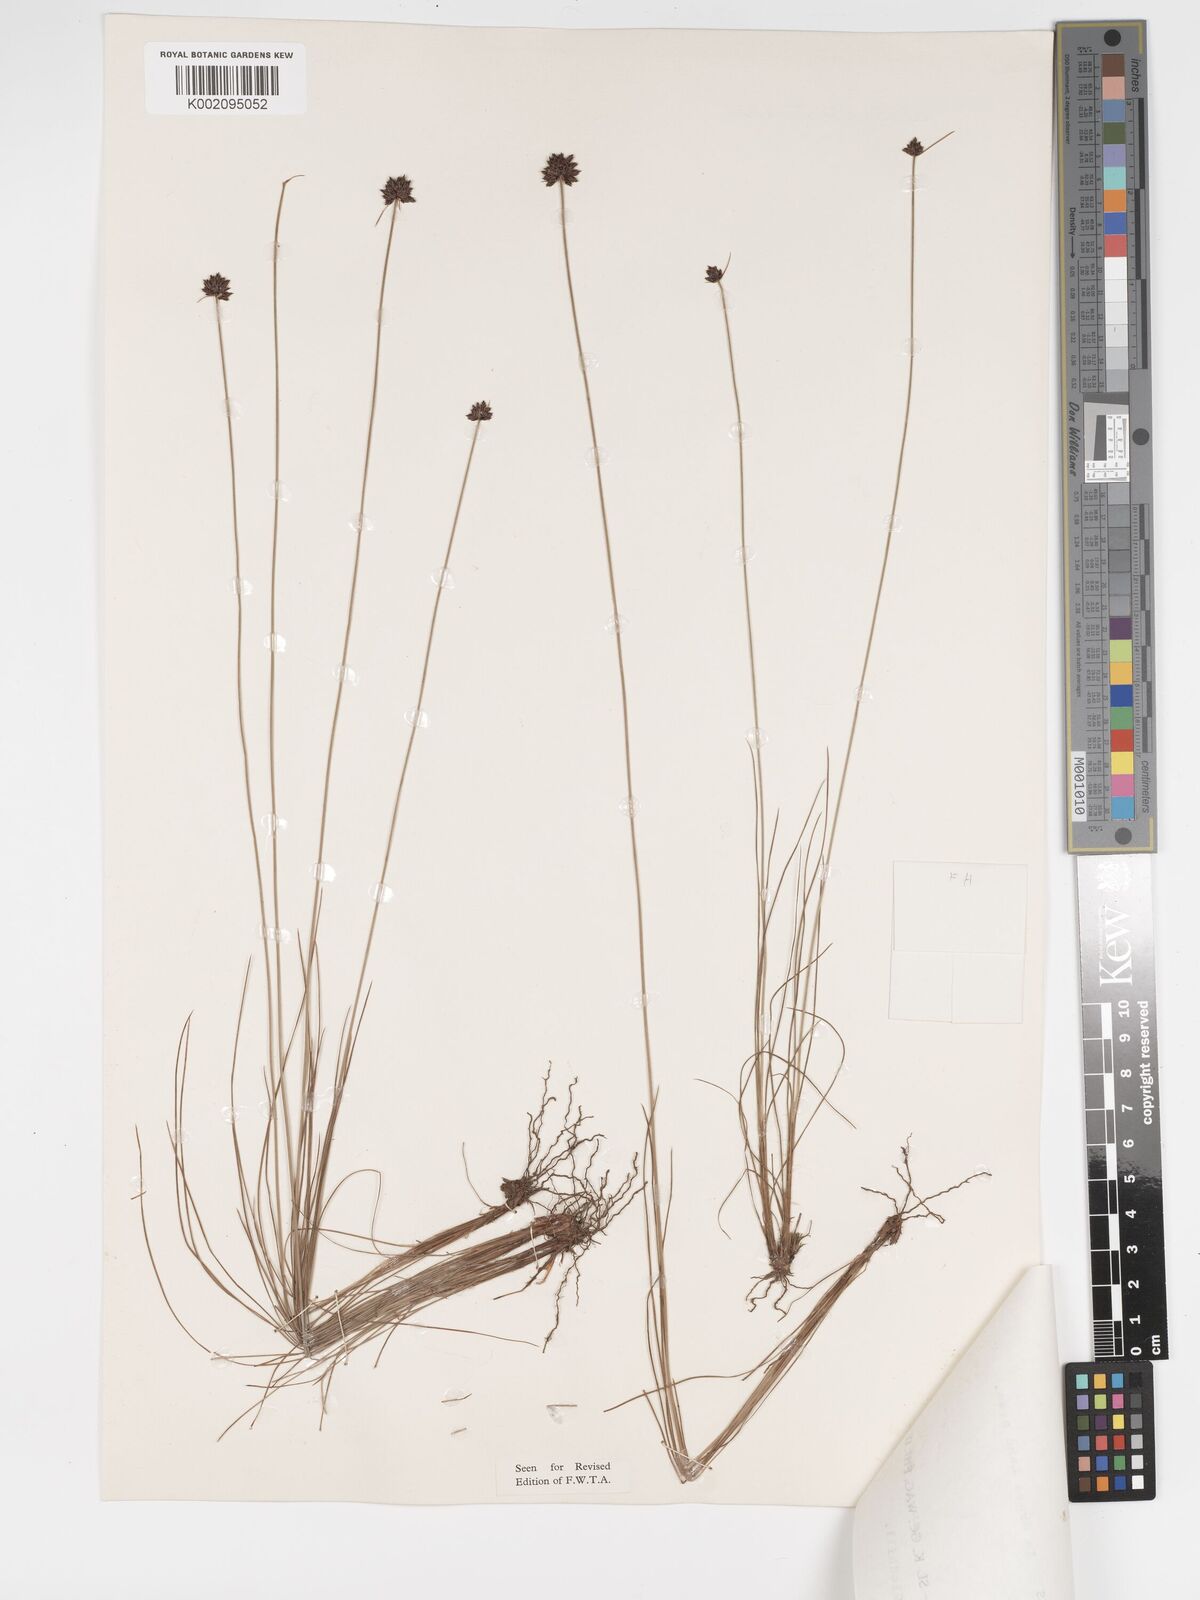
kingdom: Plantae
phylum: Tracheophyta
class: Liliopsida
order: Poales
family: Cyperaceae
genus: Bulbostylis
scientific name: Bulbostylis scabricaulis
